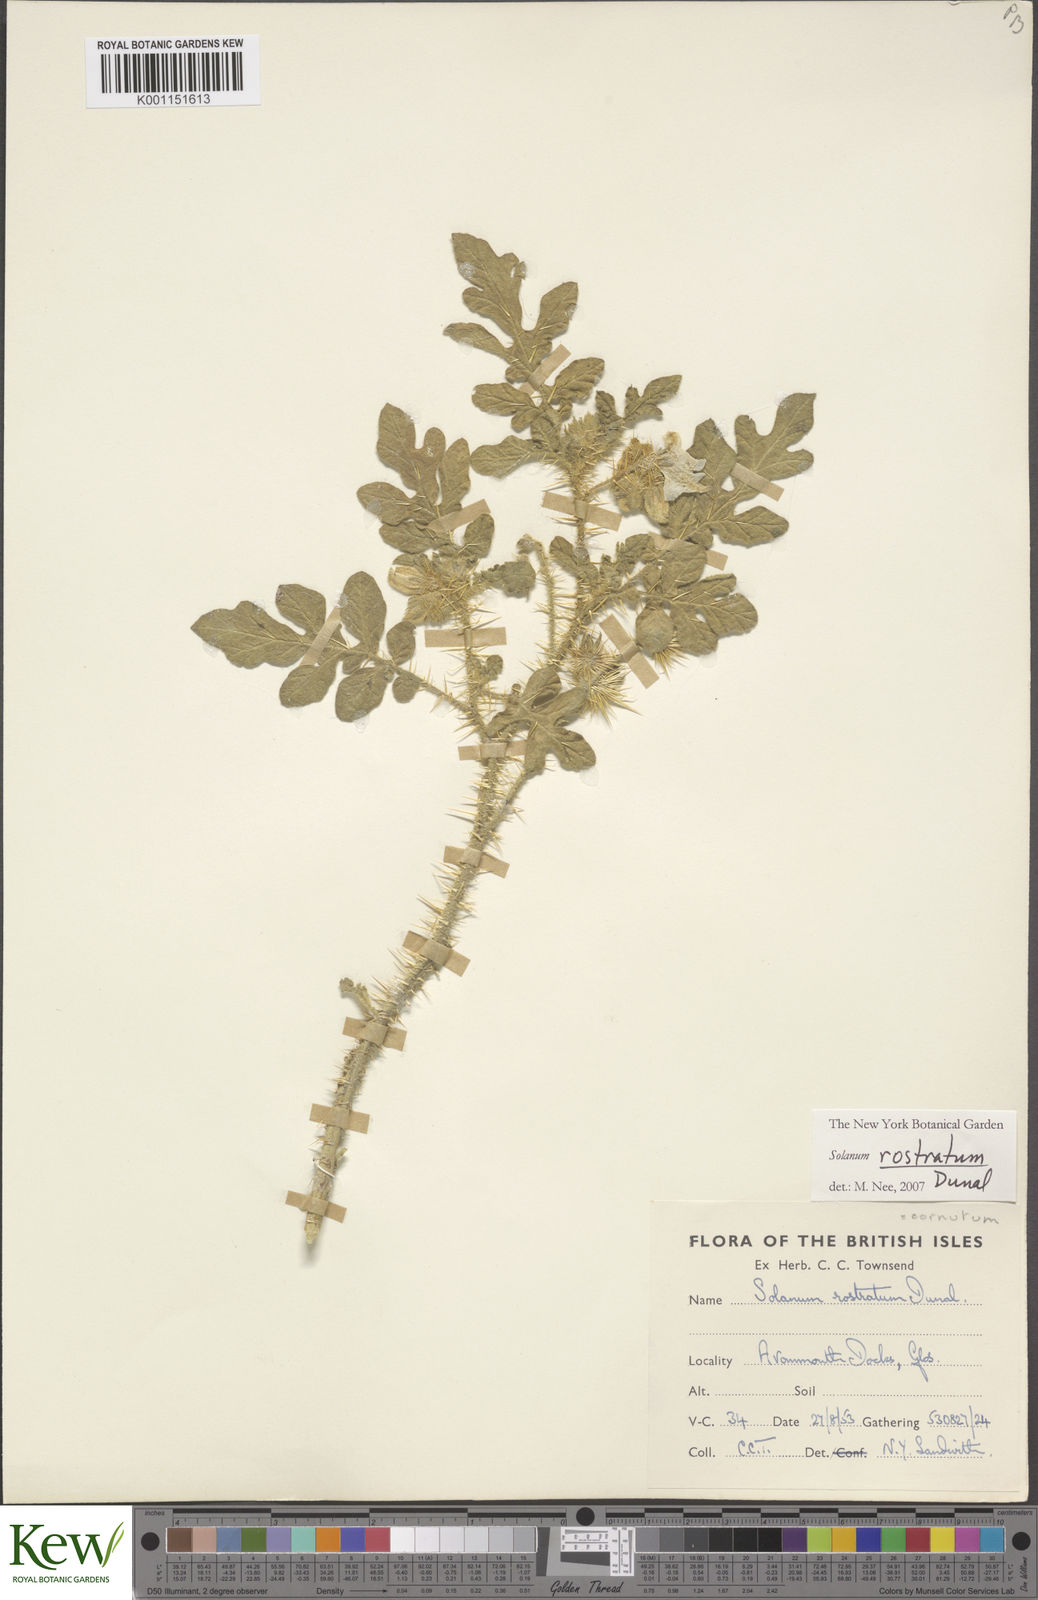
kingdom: Plantae
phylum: Tracheophyta
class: Magnoliopsida
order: Solanales
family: Solanaceae
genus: Solanum
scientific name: Solanum angustifolium
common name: Buffalobur nightshade
